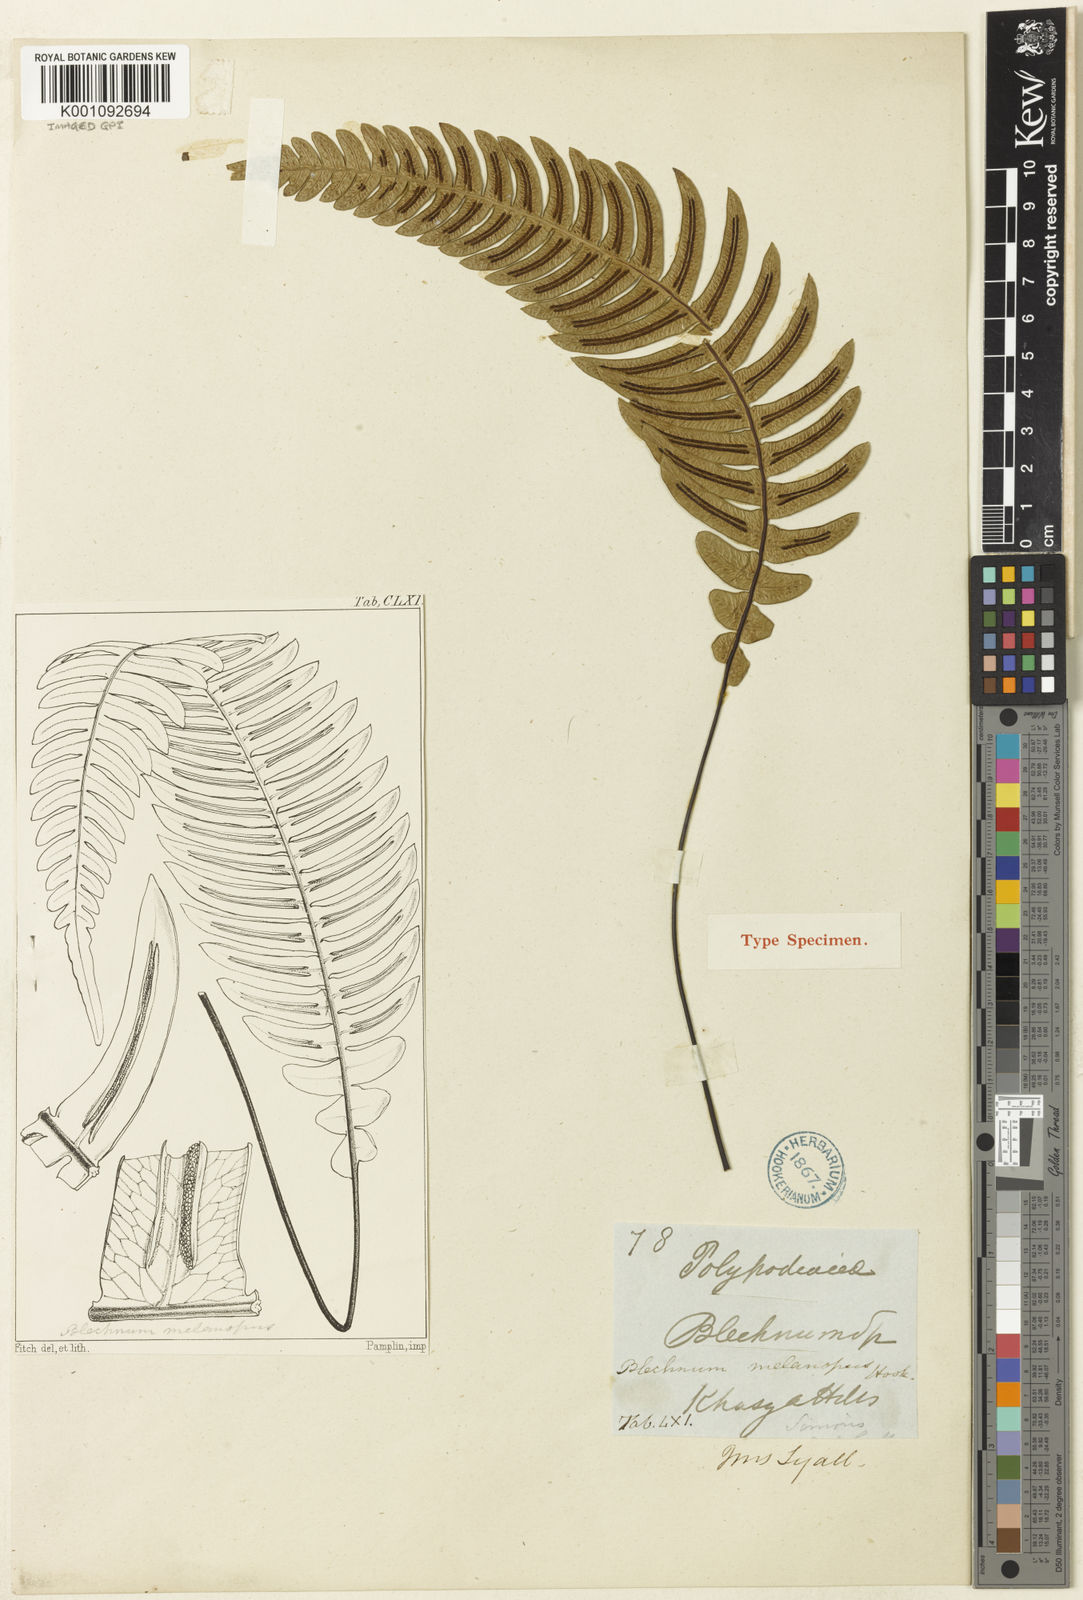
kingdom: Plantae
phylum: Tracheophyta
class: Polypodiopsida
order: Polypodiales
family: Blechnaceae
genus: Blechnidium
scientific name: Blechnidium melanopus
